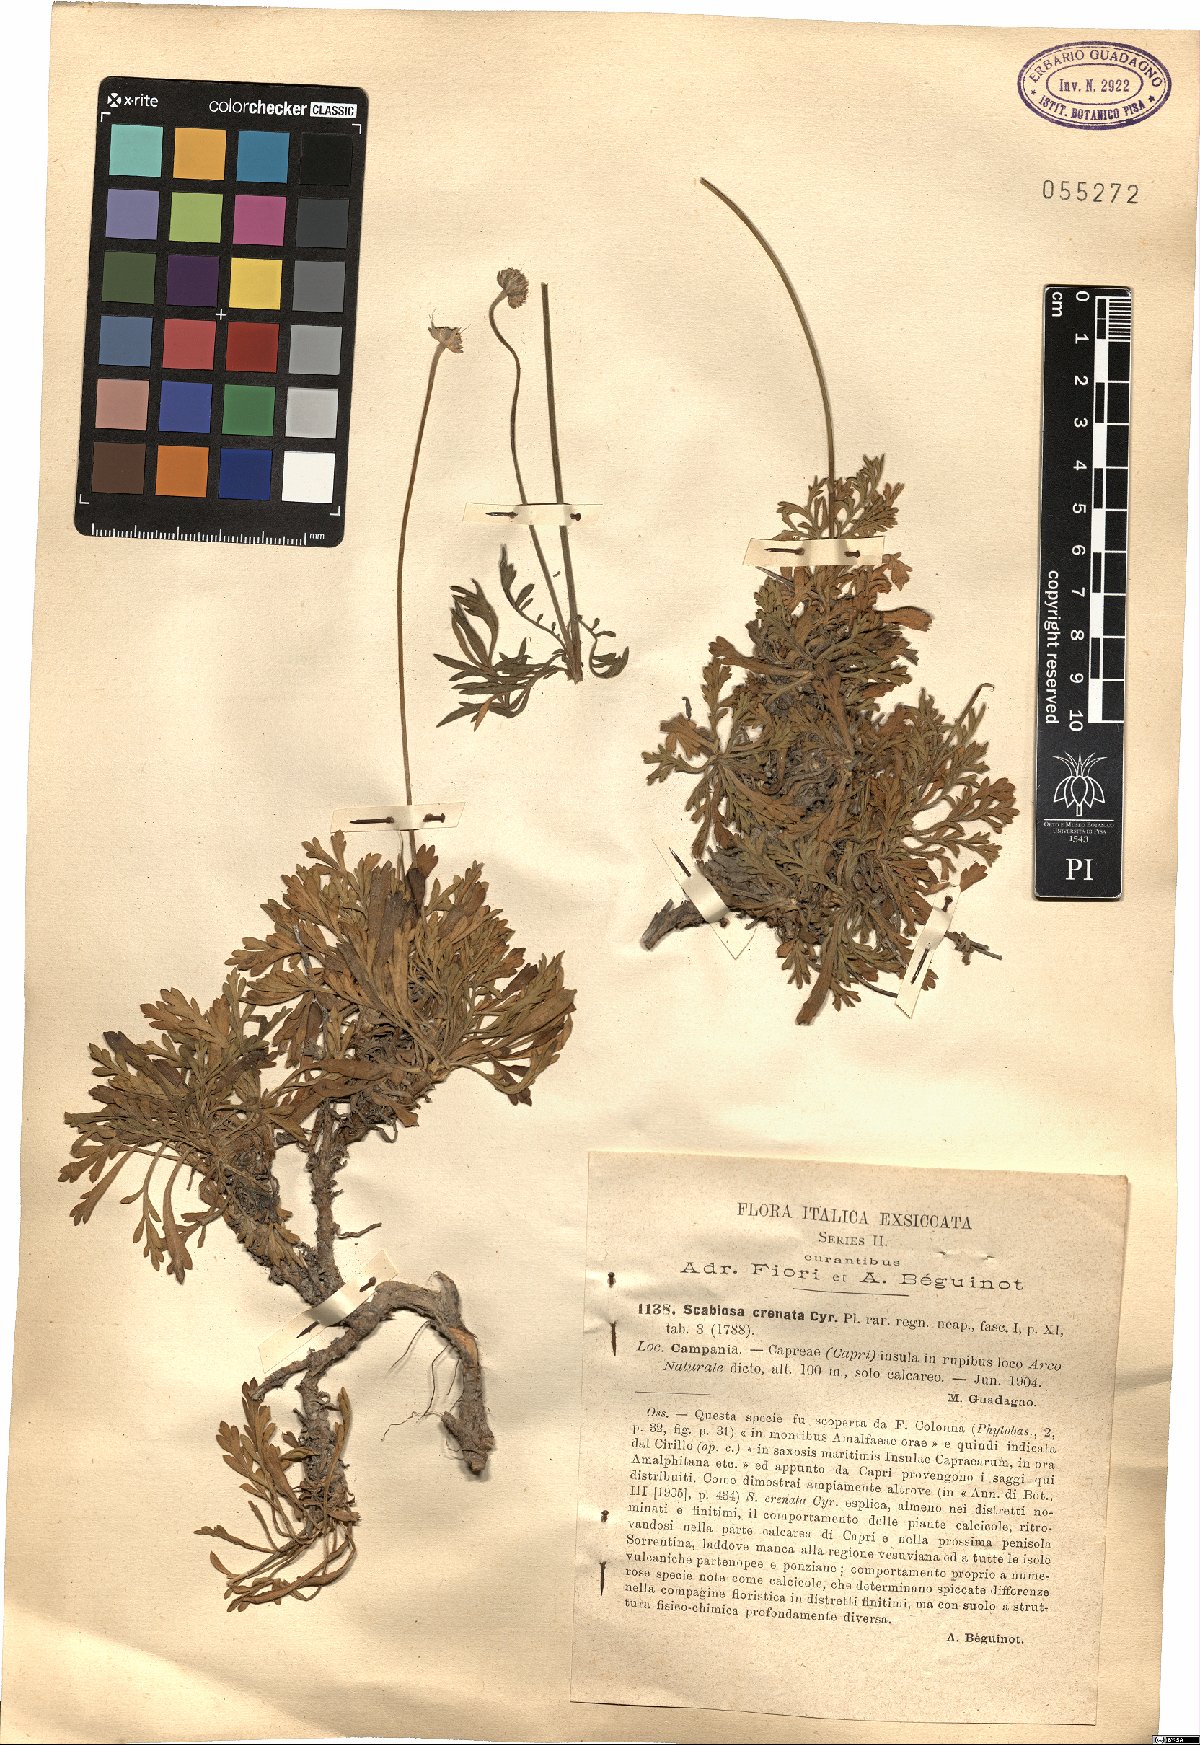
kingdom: Plantae
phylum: Tracheophyta
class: Magnoliopsida
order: Dipsacales
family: Caprifoliaceae
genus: Lomelosia
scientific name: Lomelosia crenata
